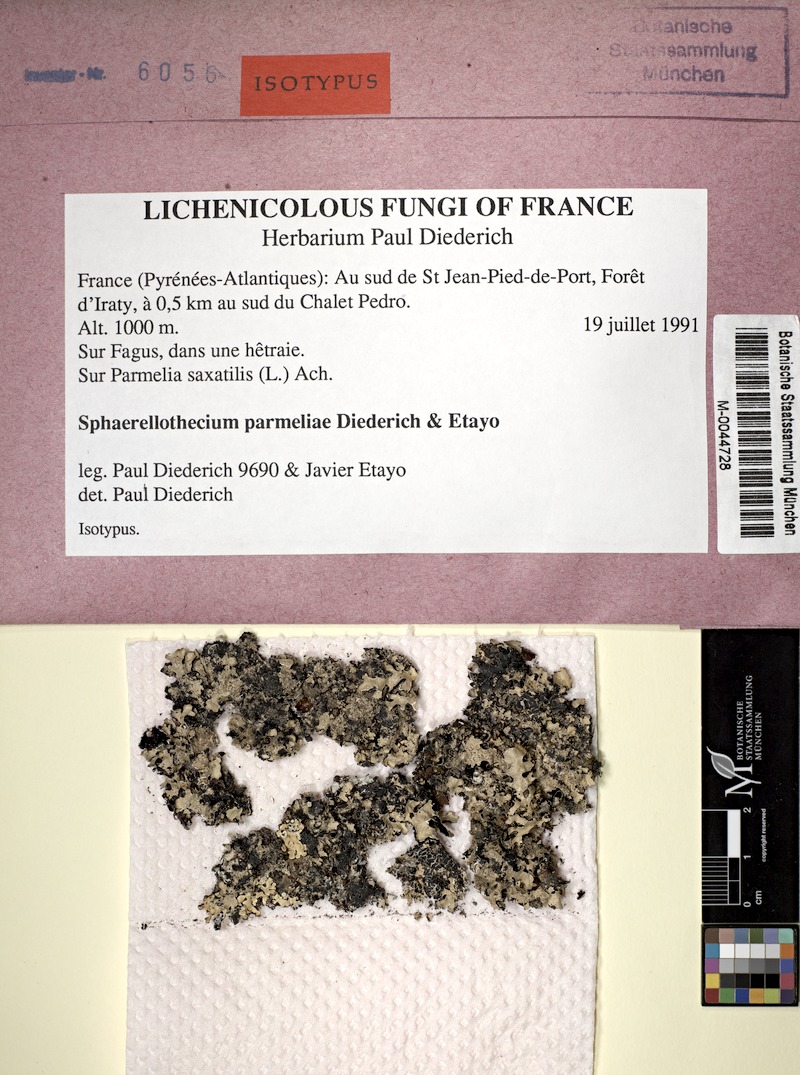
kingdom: Fungi
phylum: Ascomycota
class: Lecanoromycetes
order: Lecanorales
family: Parmeliaceae
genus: Parmelia
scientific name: Parmelia saxatilis
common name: Salted shield lichen
